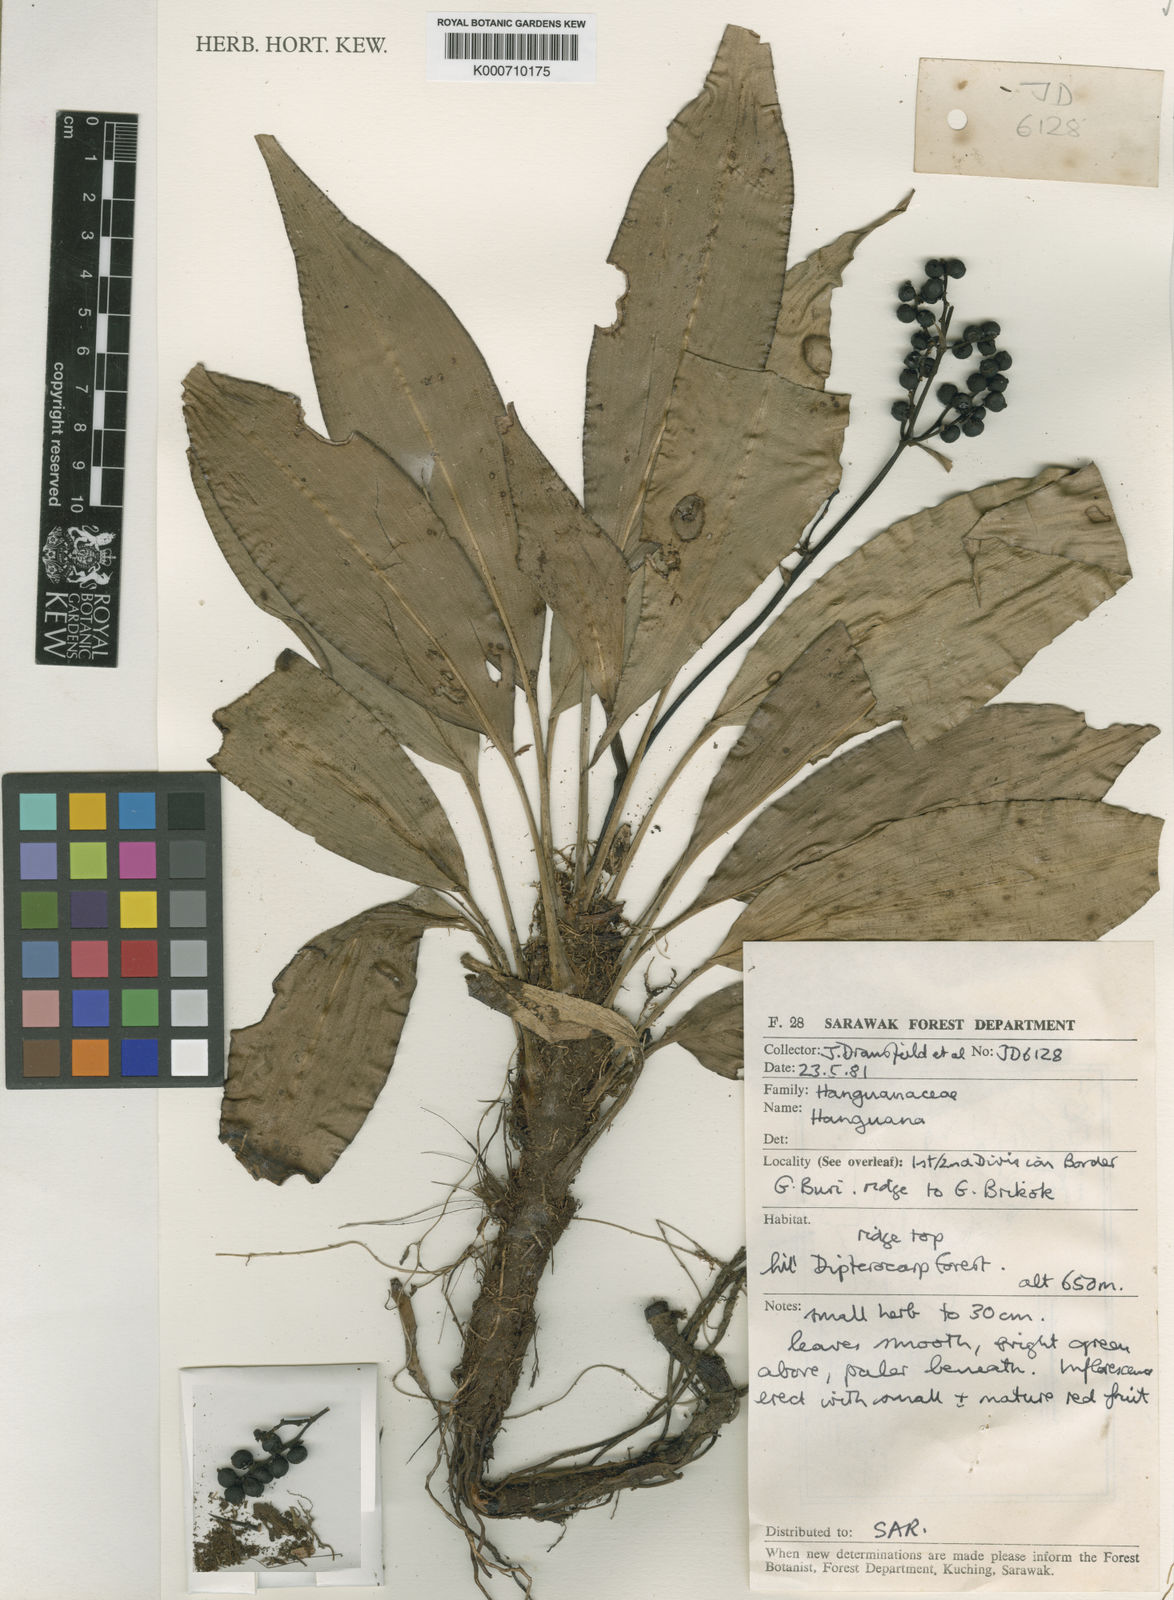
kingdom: Plantae
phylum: Tracheophyta
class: Liliopsida
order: Commelinales
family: Hanguanaceae
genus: Hanguana
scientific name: Hanguana
